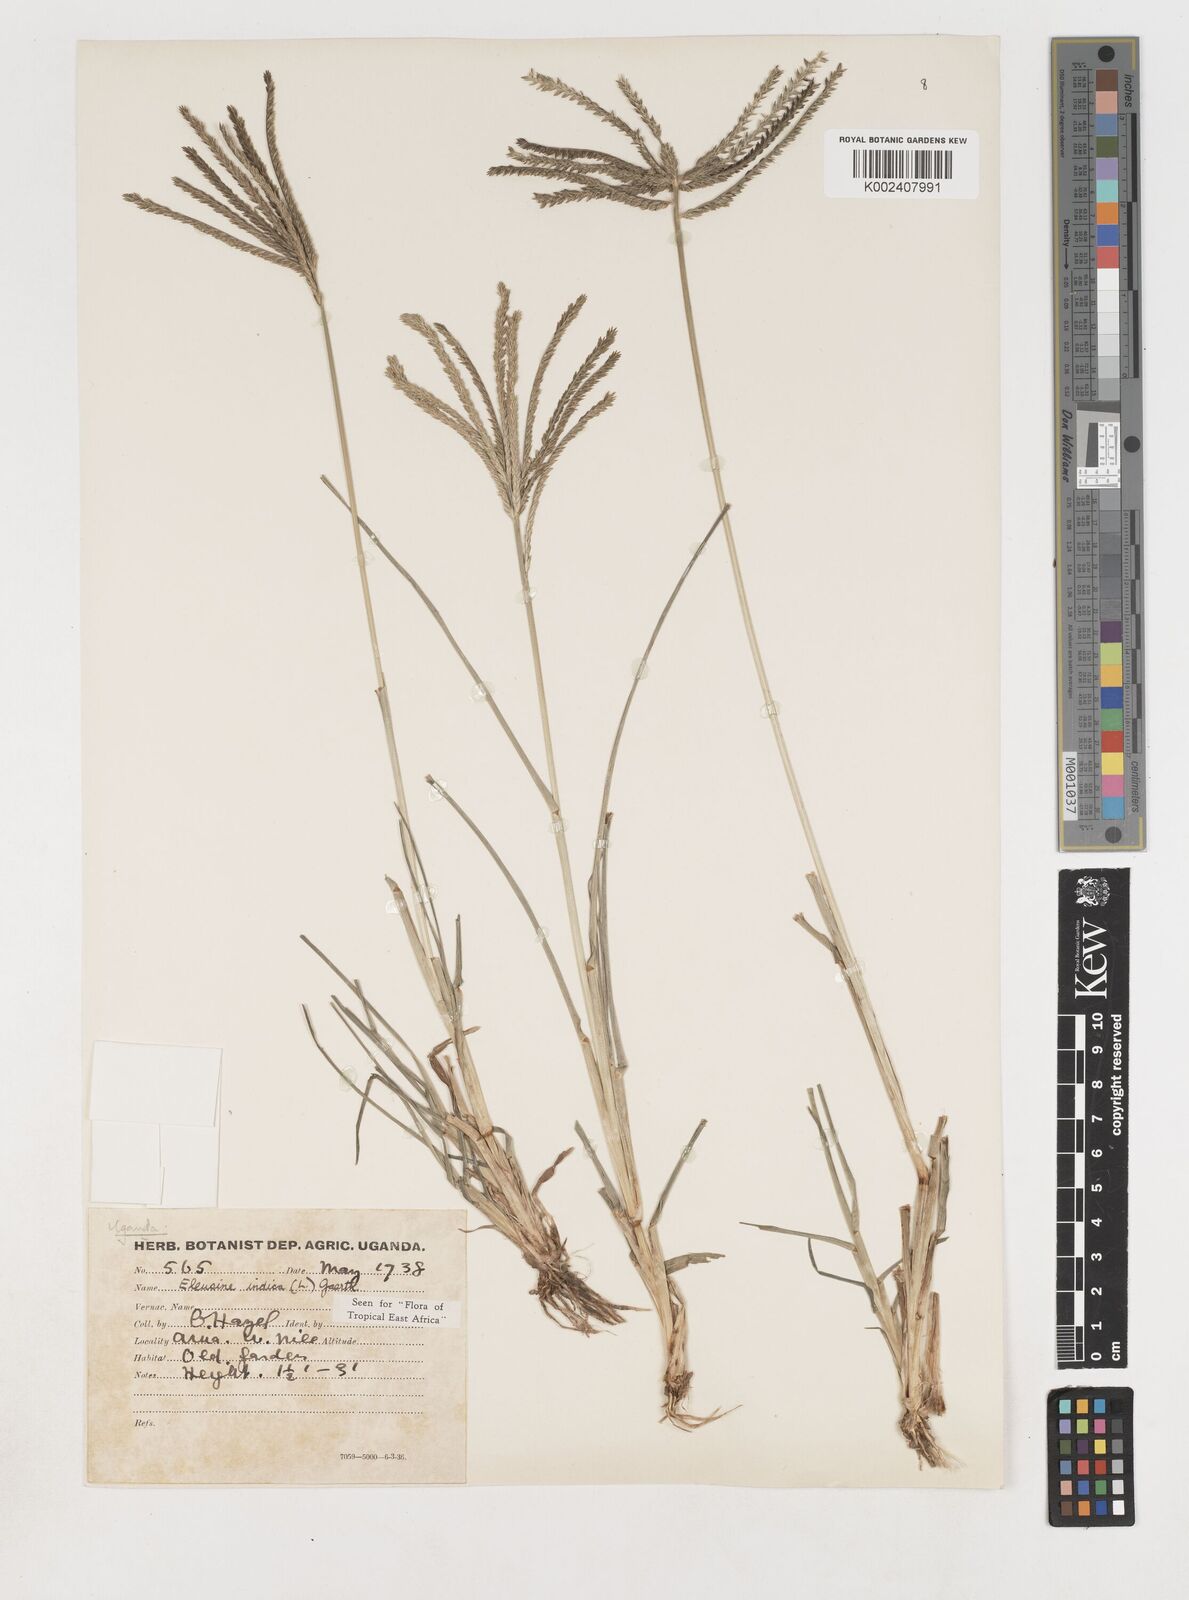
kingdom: Plantae
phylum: Tracheophyta
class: Liliopsida
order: Poales
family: Poaceae
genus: Eleusine
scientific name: Eleusine indica
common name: Yard-grass
